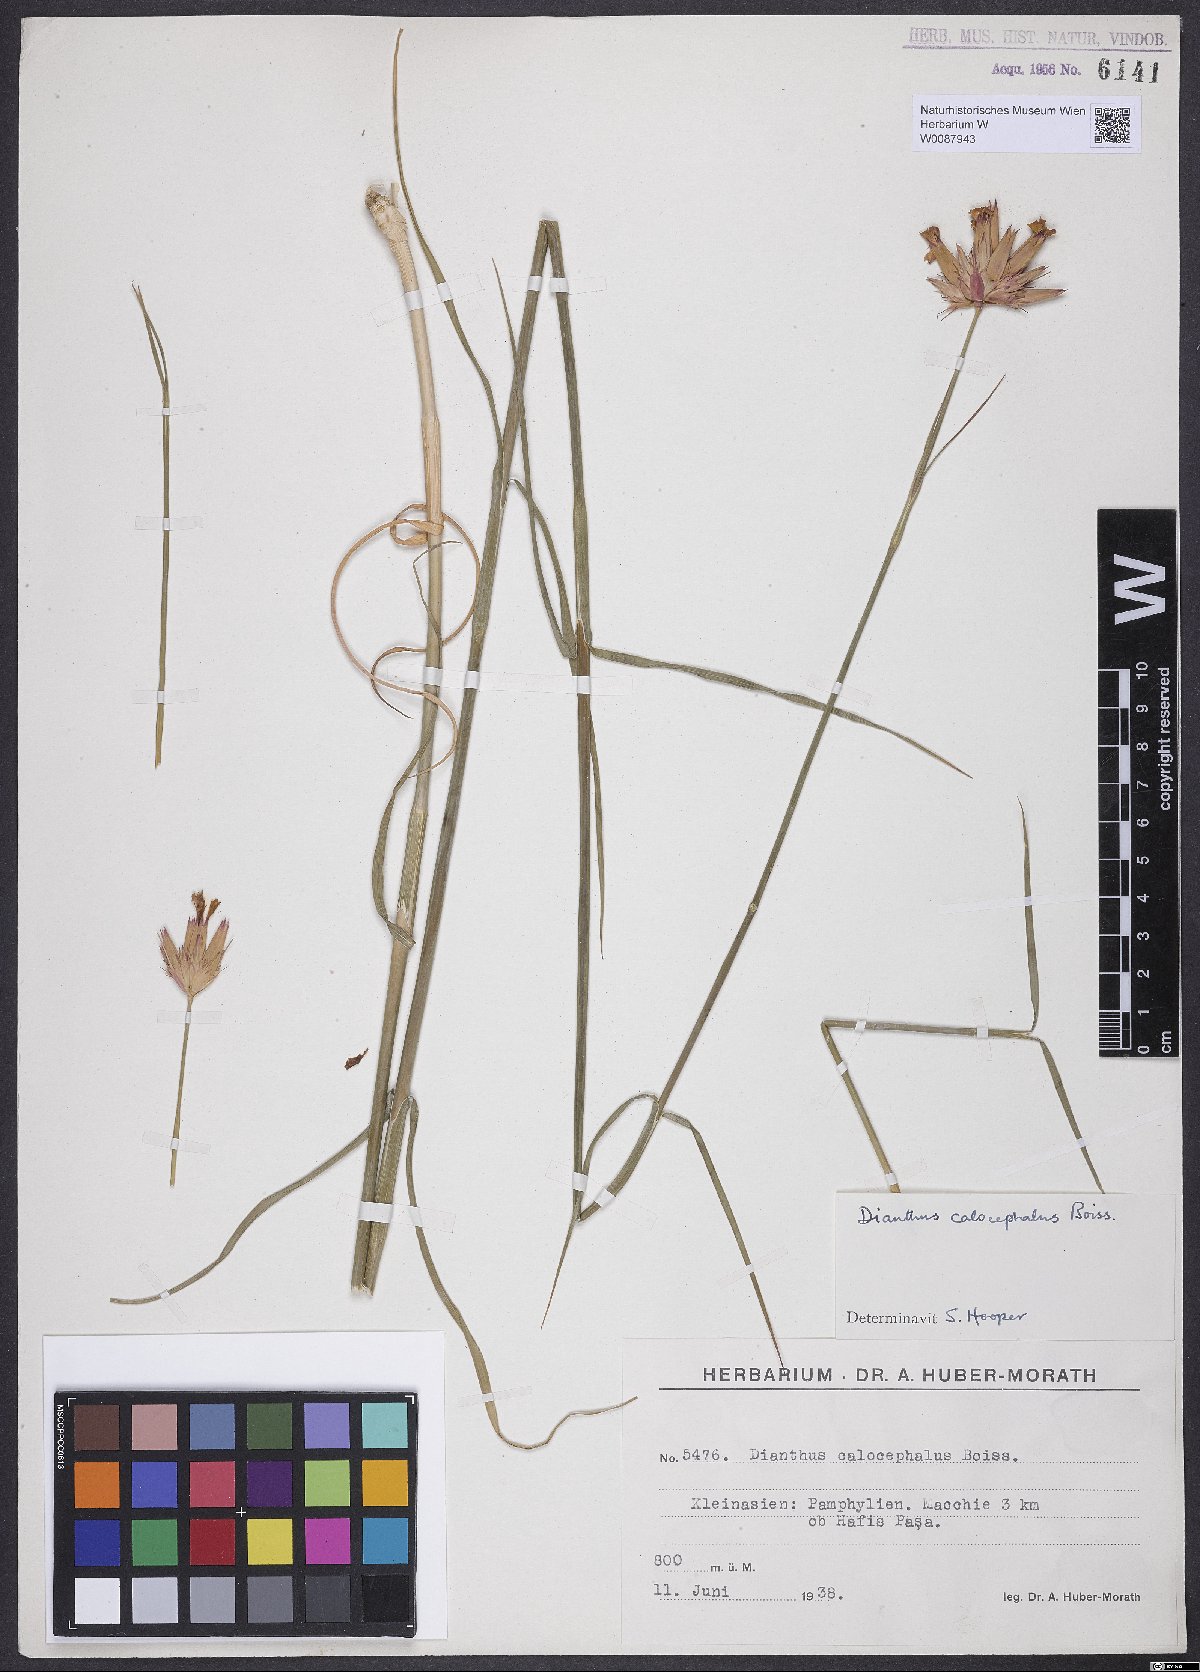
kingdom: Plantae
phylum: Tracheophyta
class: Magnoliopsida
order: Caryophyllales
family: Caryophyllaceae
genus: Dianthus
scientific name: Dianthus cruentus
